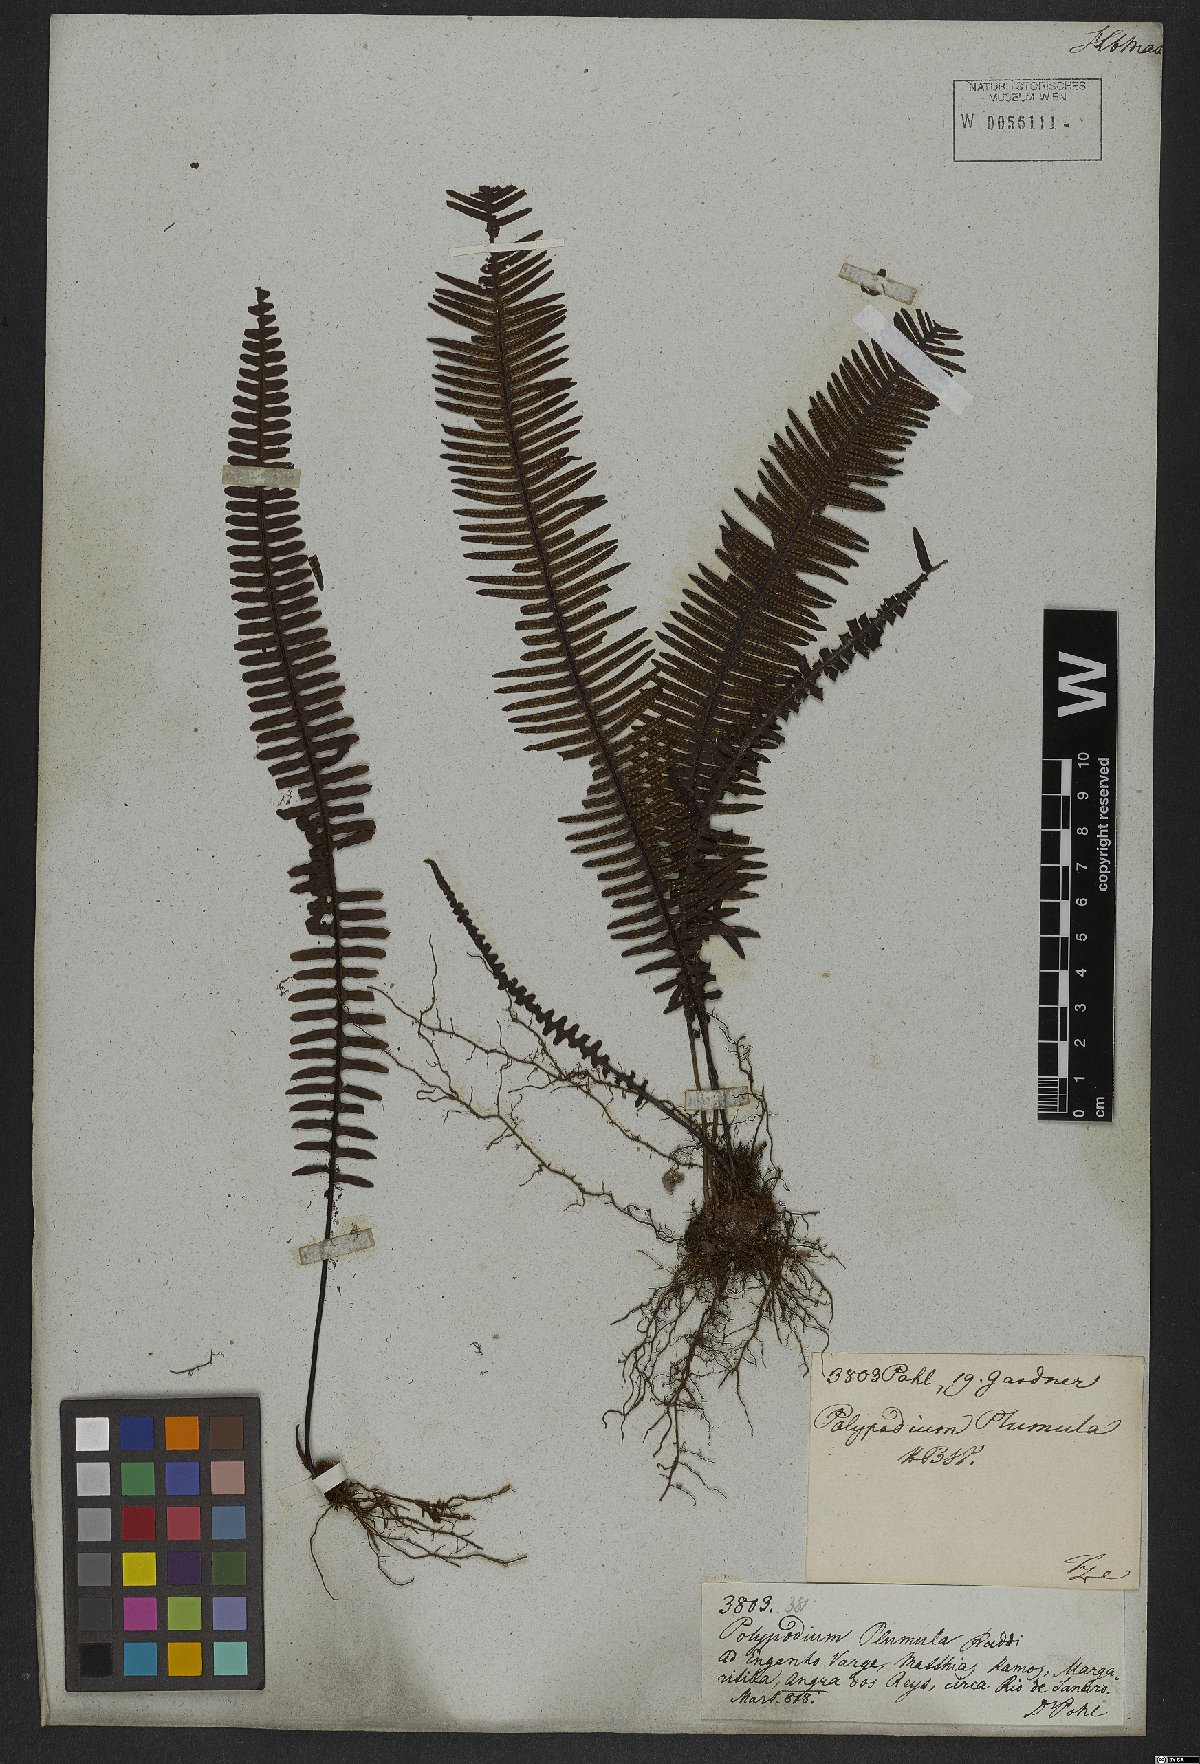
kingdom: Plantae
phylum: Tracheophyta
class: Polypodiopsida
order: Polypodiales
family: Polypodiaceae
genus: Pecluma
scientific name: Pecluma plumula
